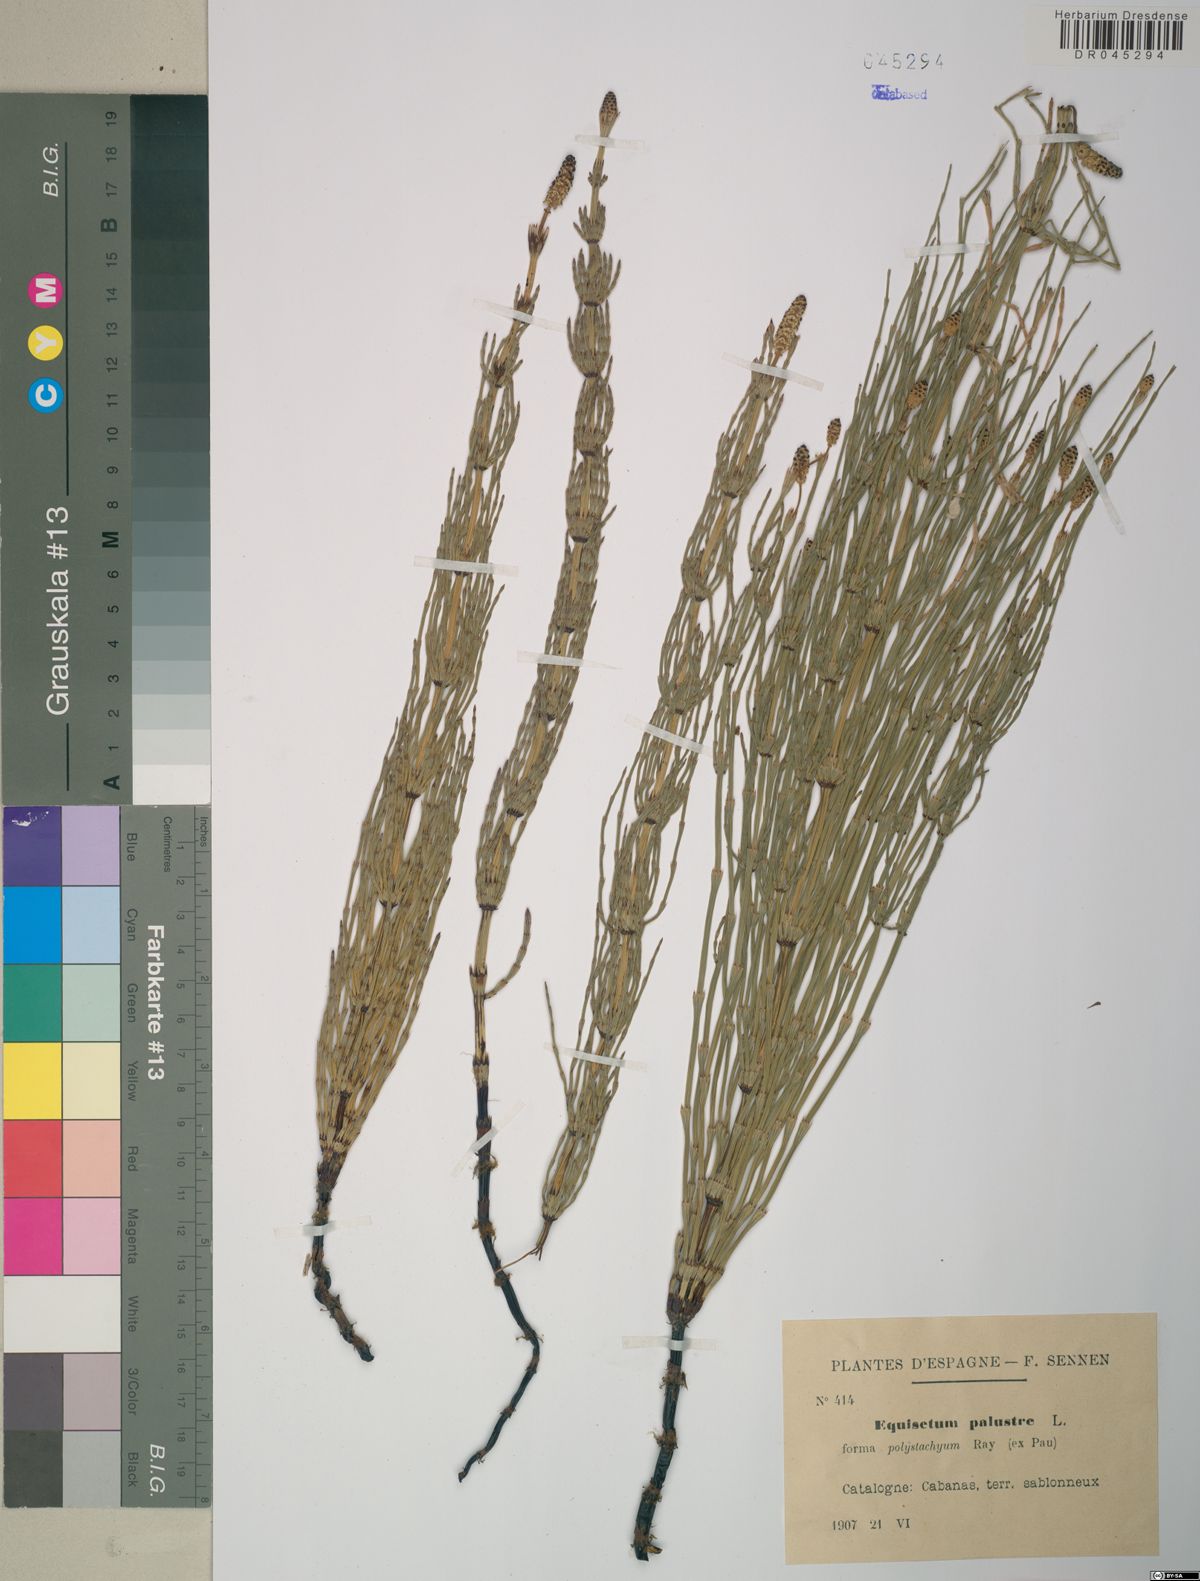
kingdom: Plantae
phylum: Tracheophyta
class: Polypodiopsida
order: Equisetales
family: Equisetaceae
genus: Equisetum
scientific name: Equisetum palustre
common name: Marsh horsetail
